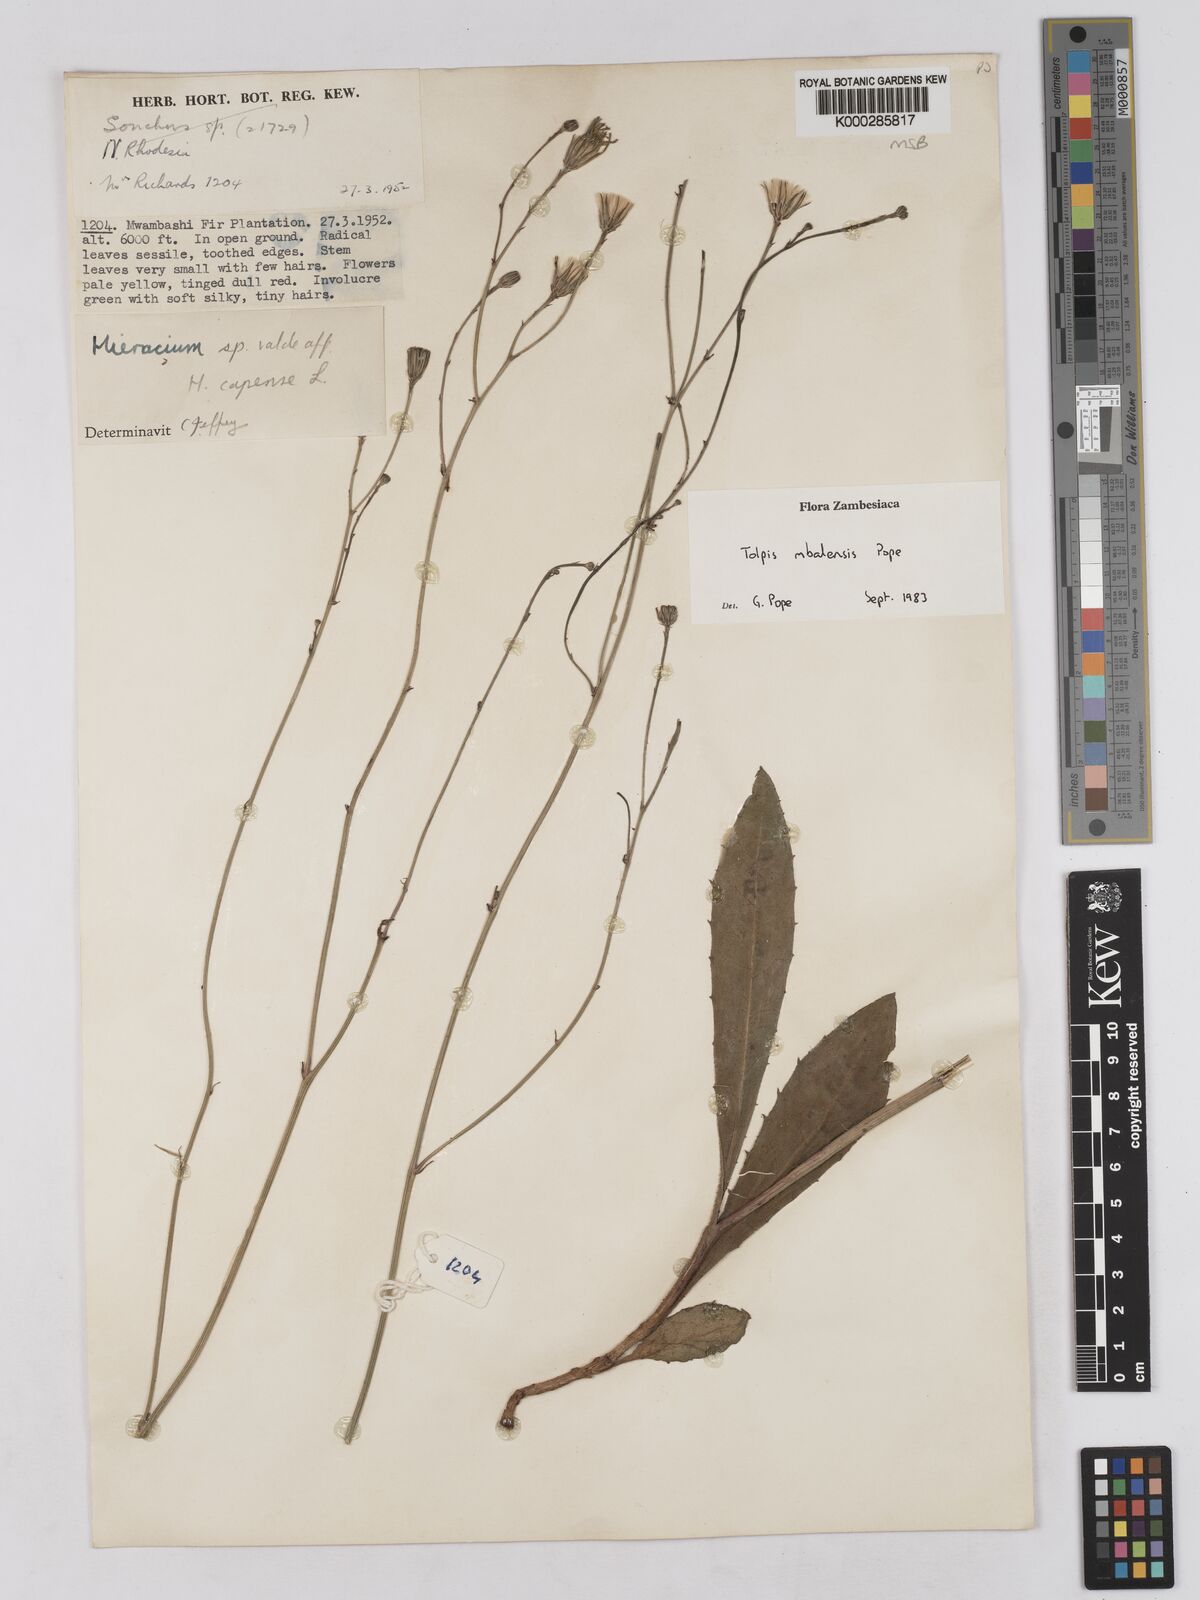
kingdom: Plantae
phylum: Tracheophyta
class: Magnoliopsida
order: Asterales
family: Asteraceae
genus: Tolpis
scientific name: Tolpis mbalensis
